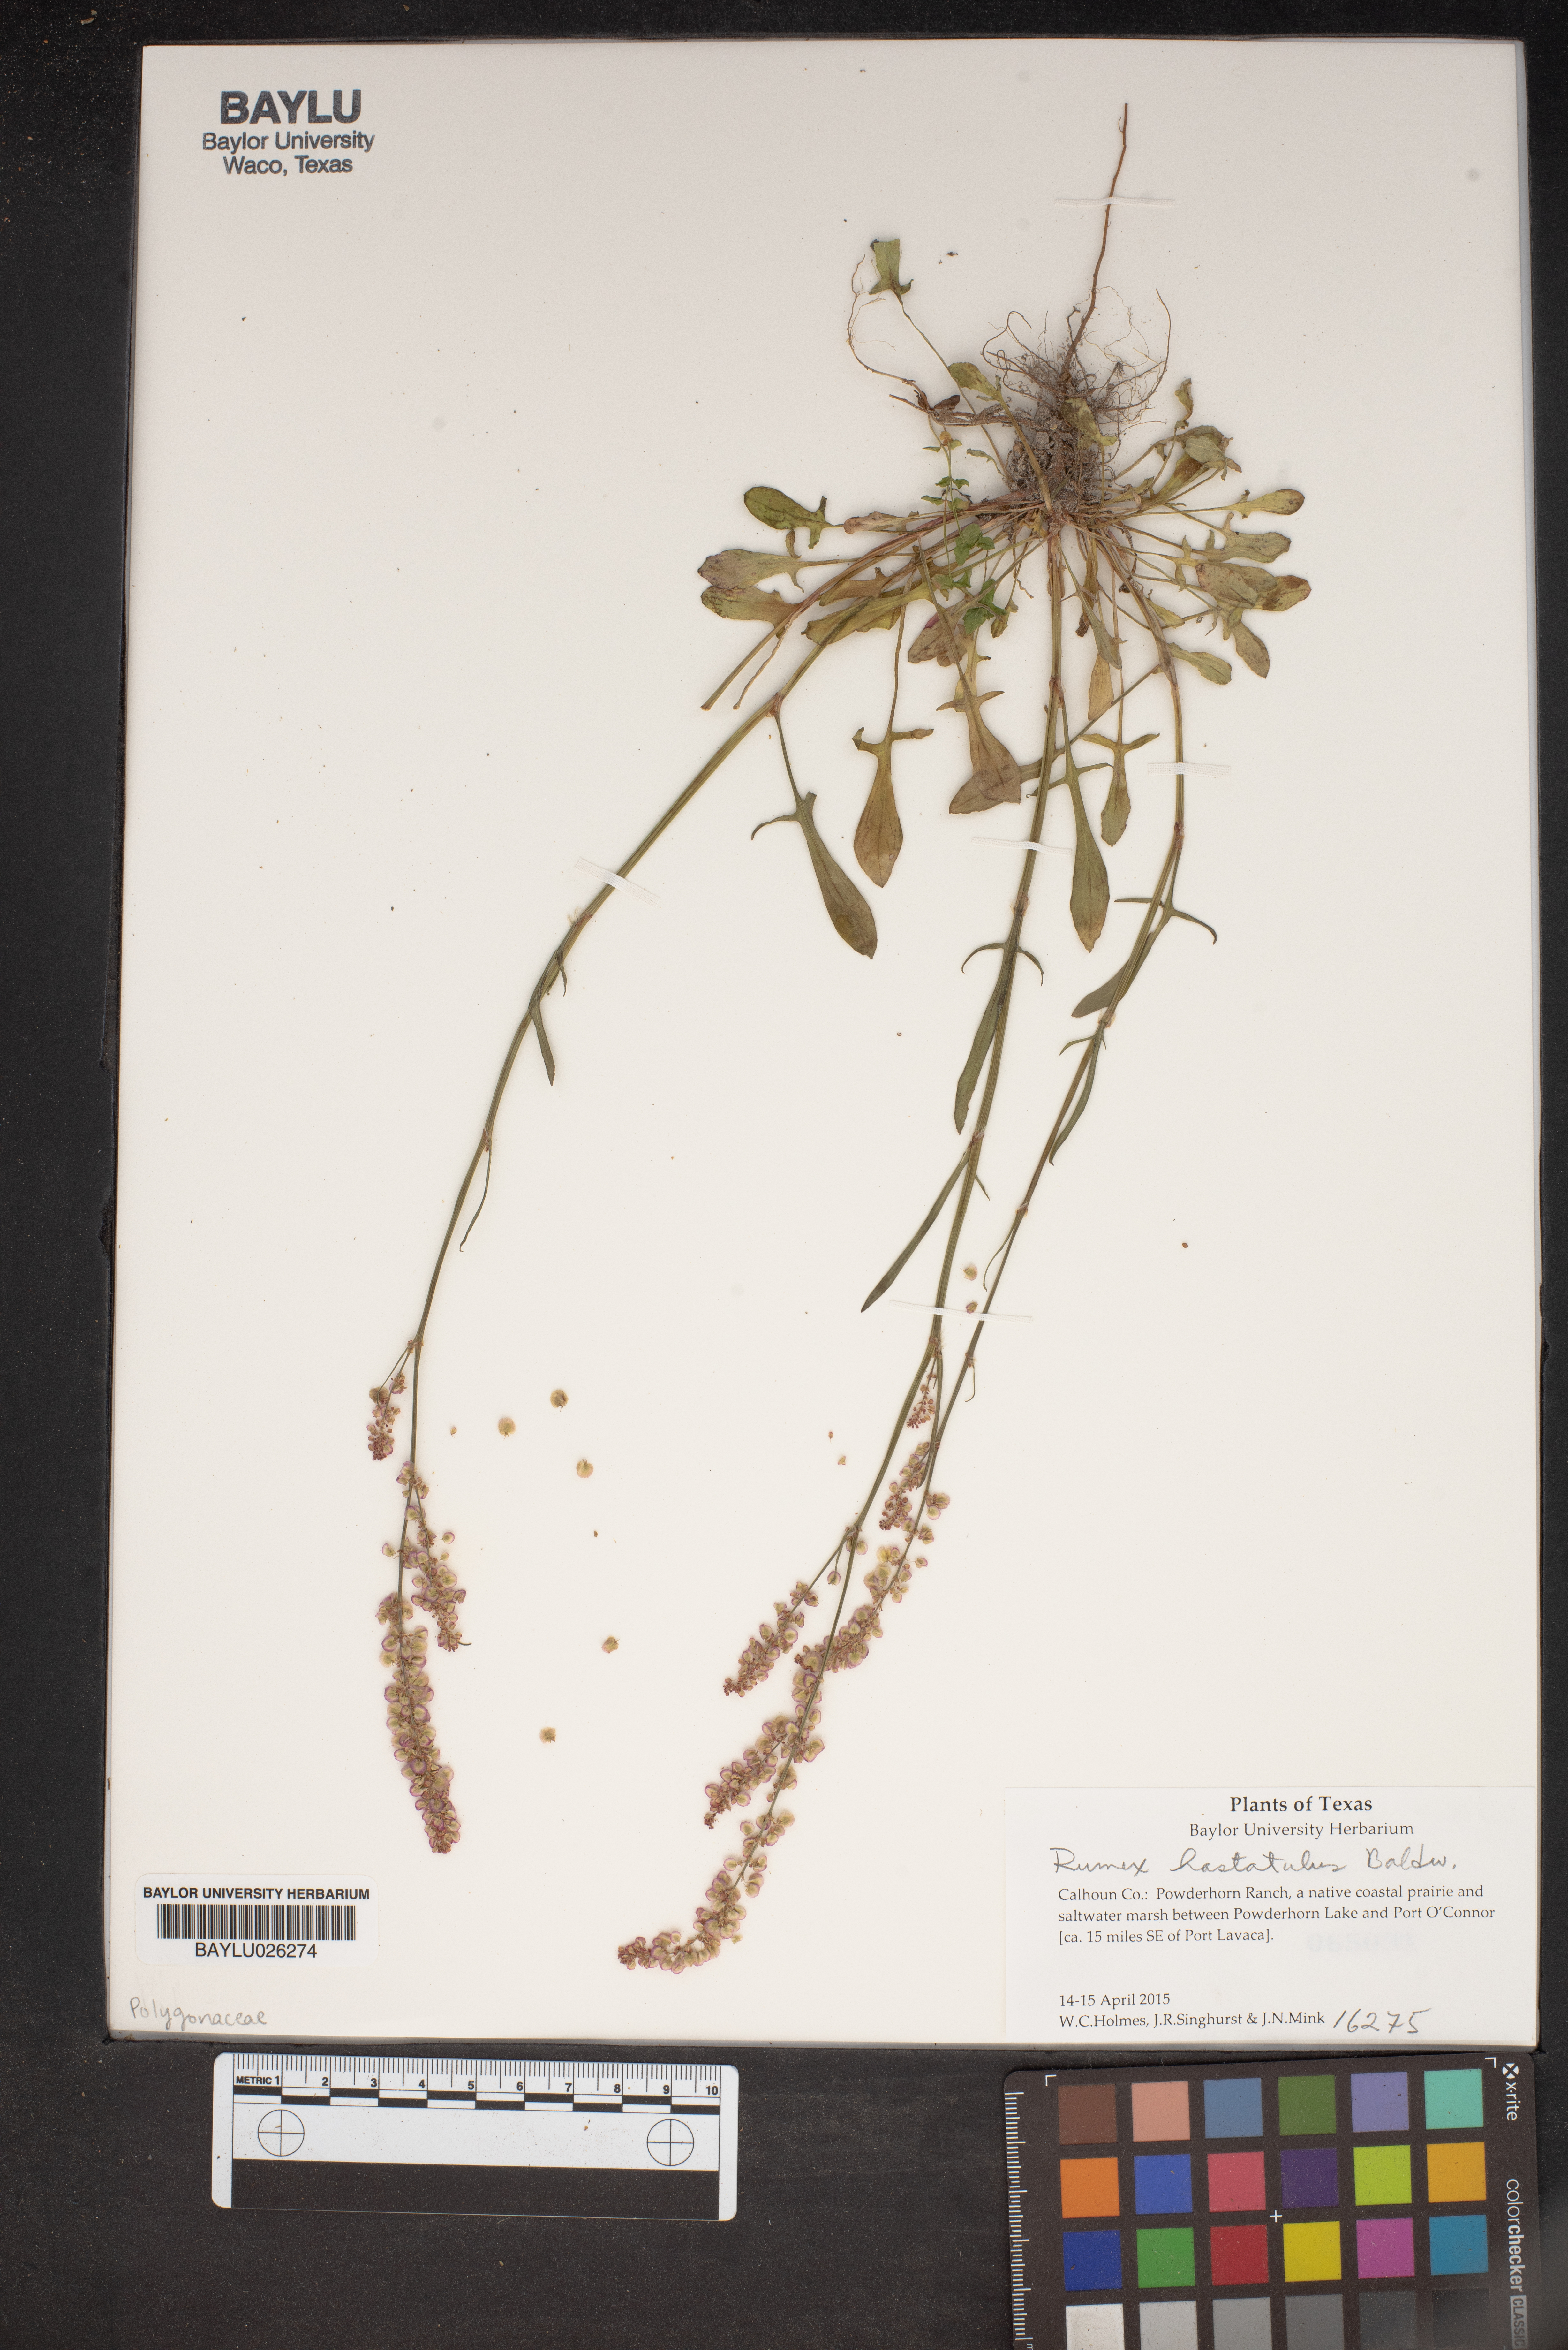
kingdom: Plantae
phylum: Tracheophyta
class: Magnoliopsida
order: Caryophyllales
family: Polygonaceae
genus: Rumex
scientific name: Rumex hastatulus
